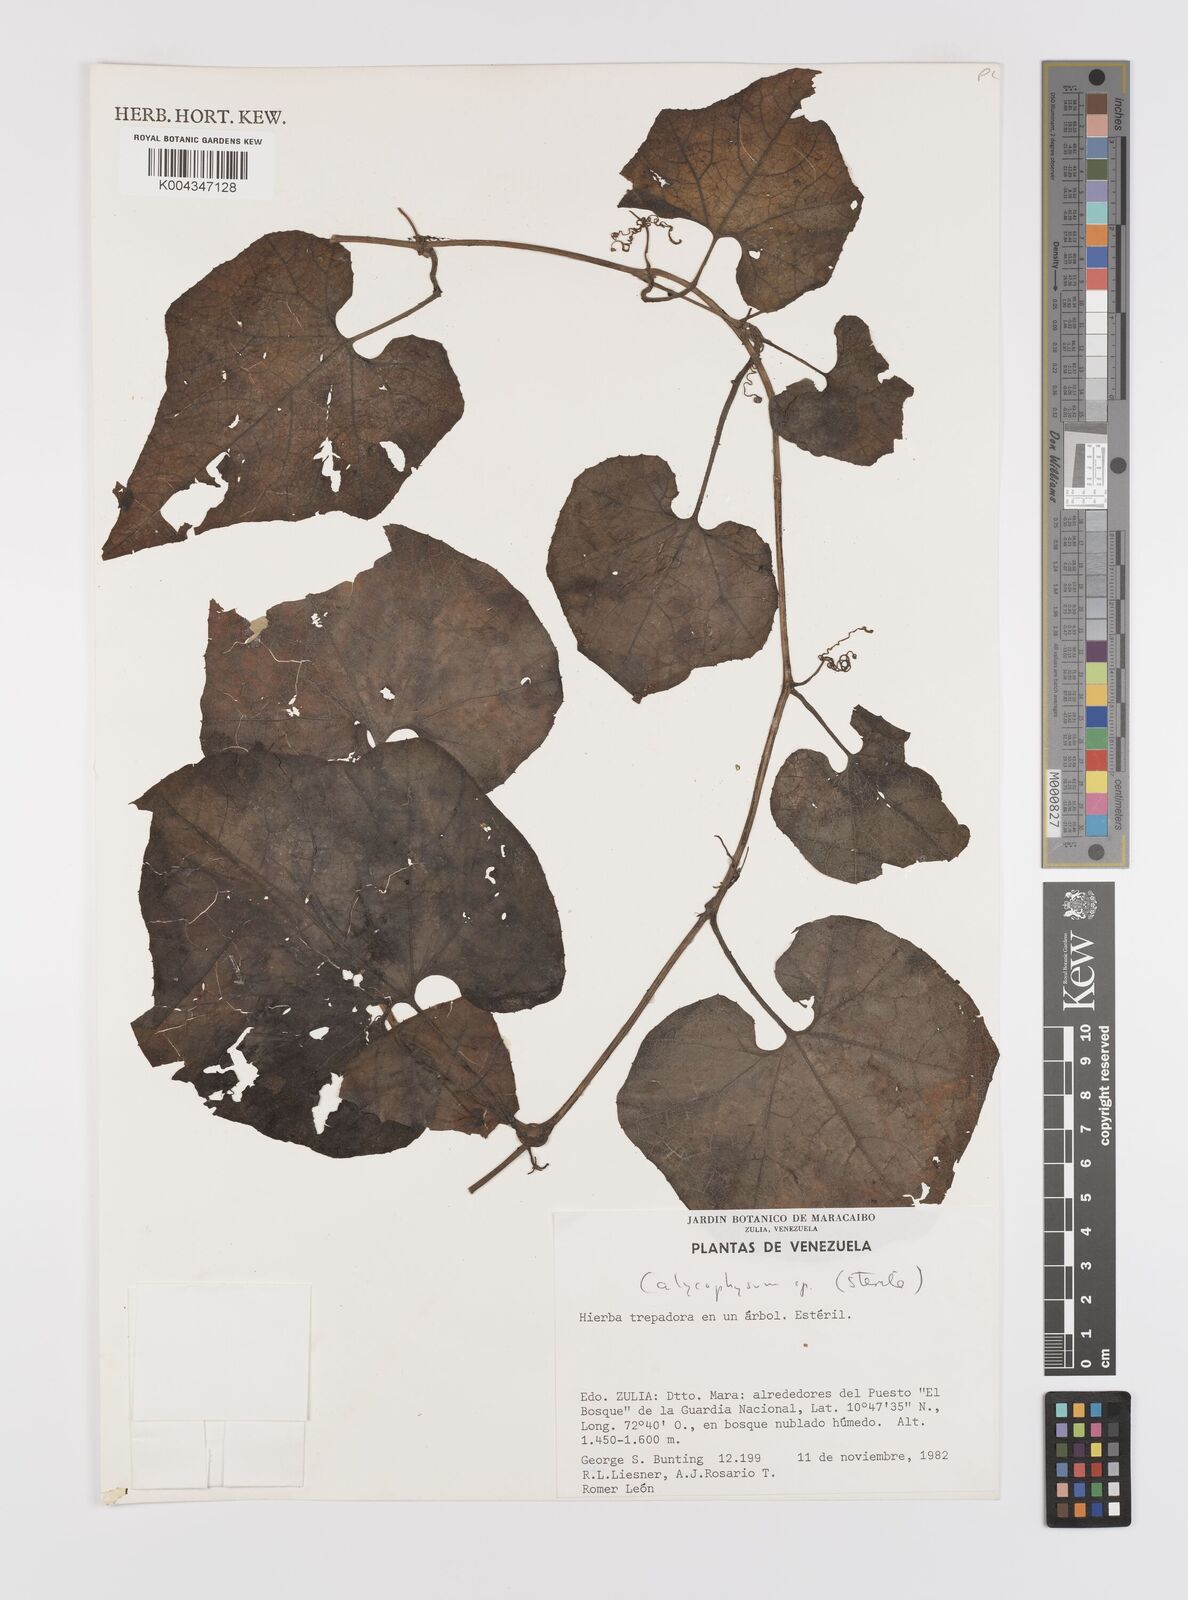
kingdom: Plantae
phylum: Tracheophyta
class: Magnoliopsida
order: Cucurbitales
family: Cucurbitaceae
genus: Calycophysum
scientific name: Calycophysum
